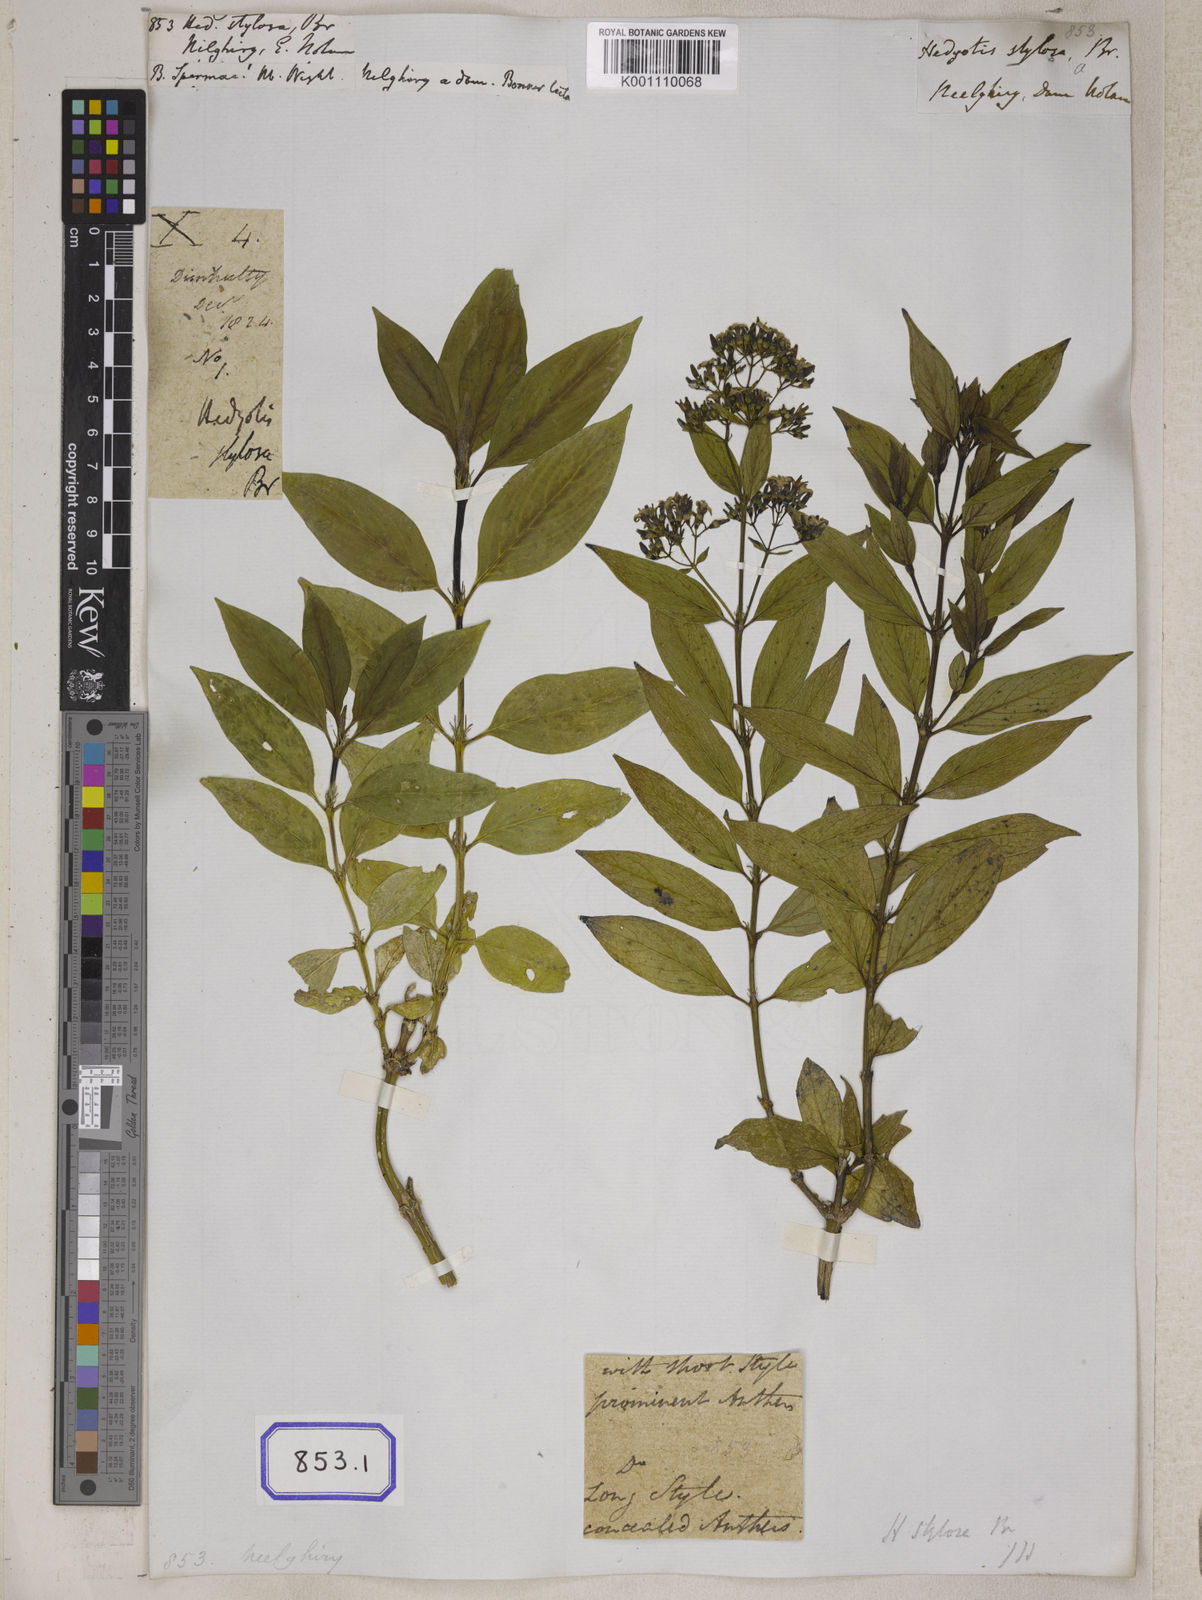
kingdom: Plantae
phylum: Tracheophyta
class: Magnoliopsida
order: Gentianales
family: Rubiaceae
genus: Hedyotis
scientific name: Hedyotis
